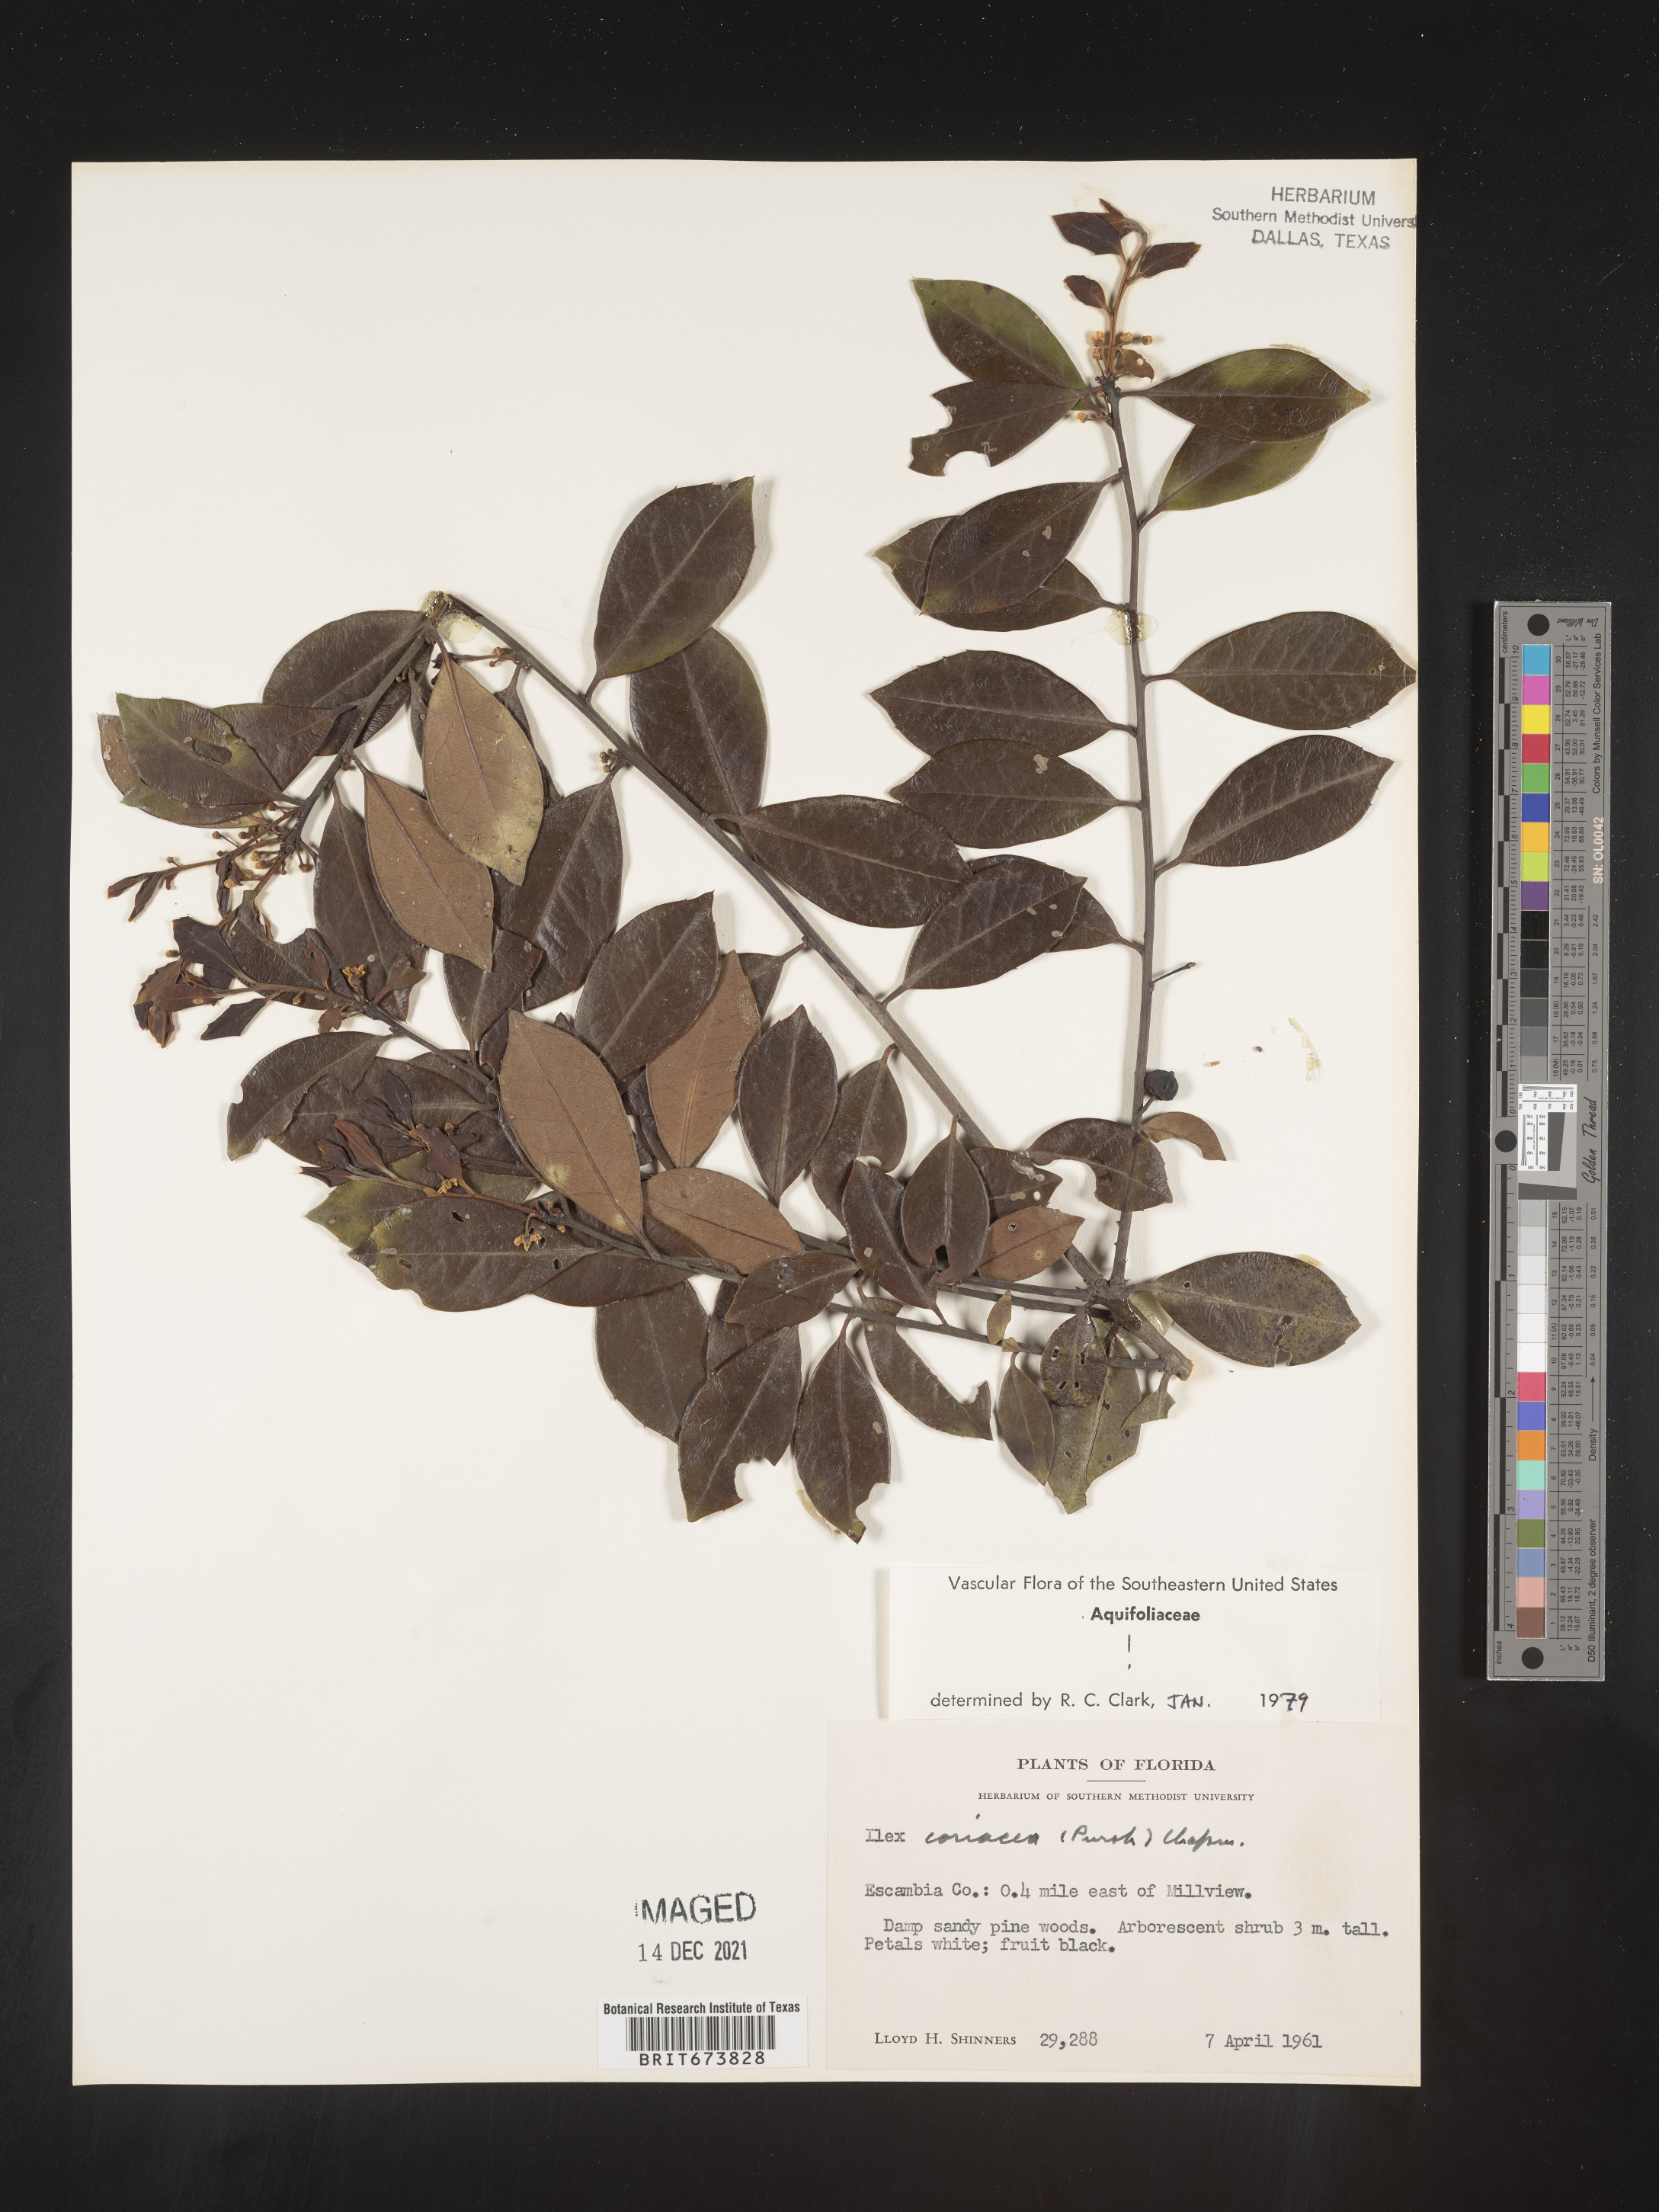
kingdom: Plantae
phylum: Tracheophyta
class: Magnoliopsida
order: Aquifoliales
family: Aquifoliaceae
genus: Ilex
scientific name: Ilex coriacea
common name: Sweet gallberry
